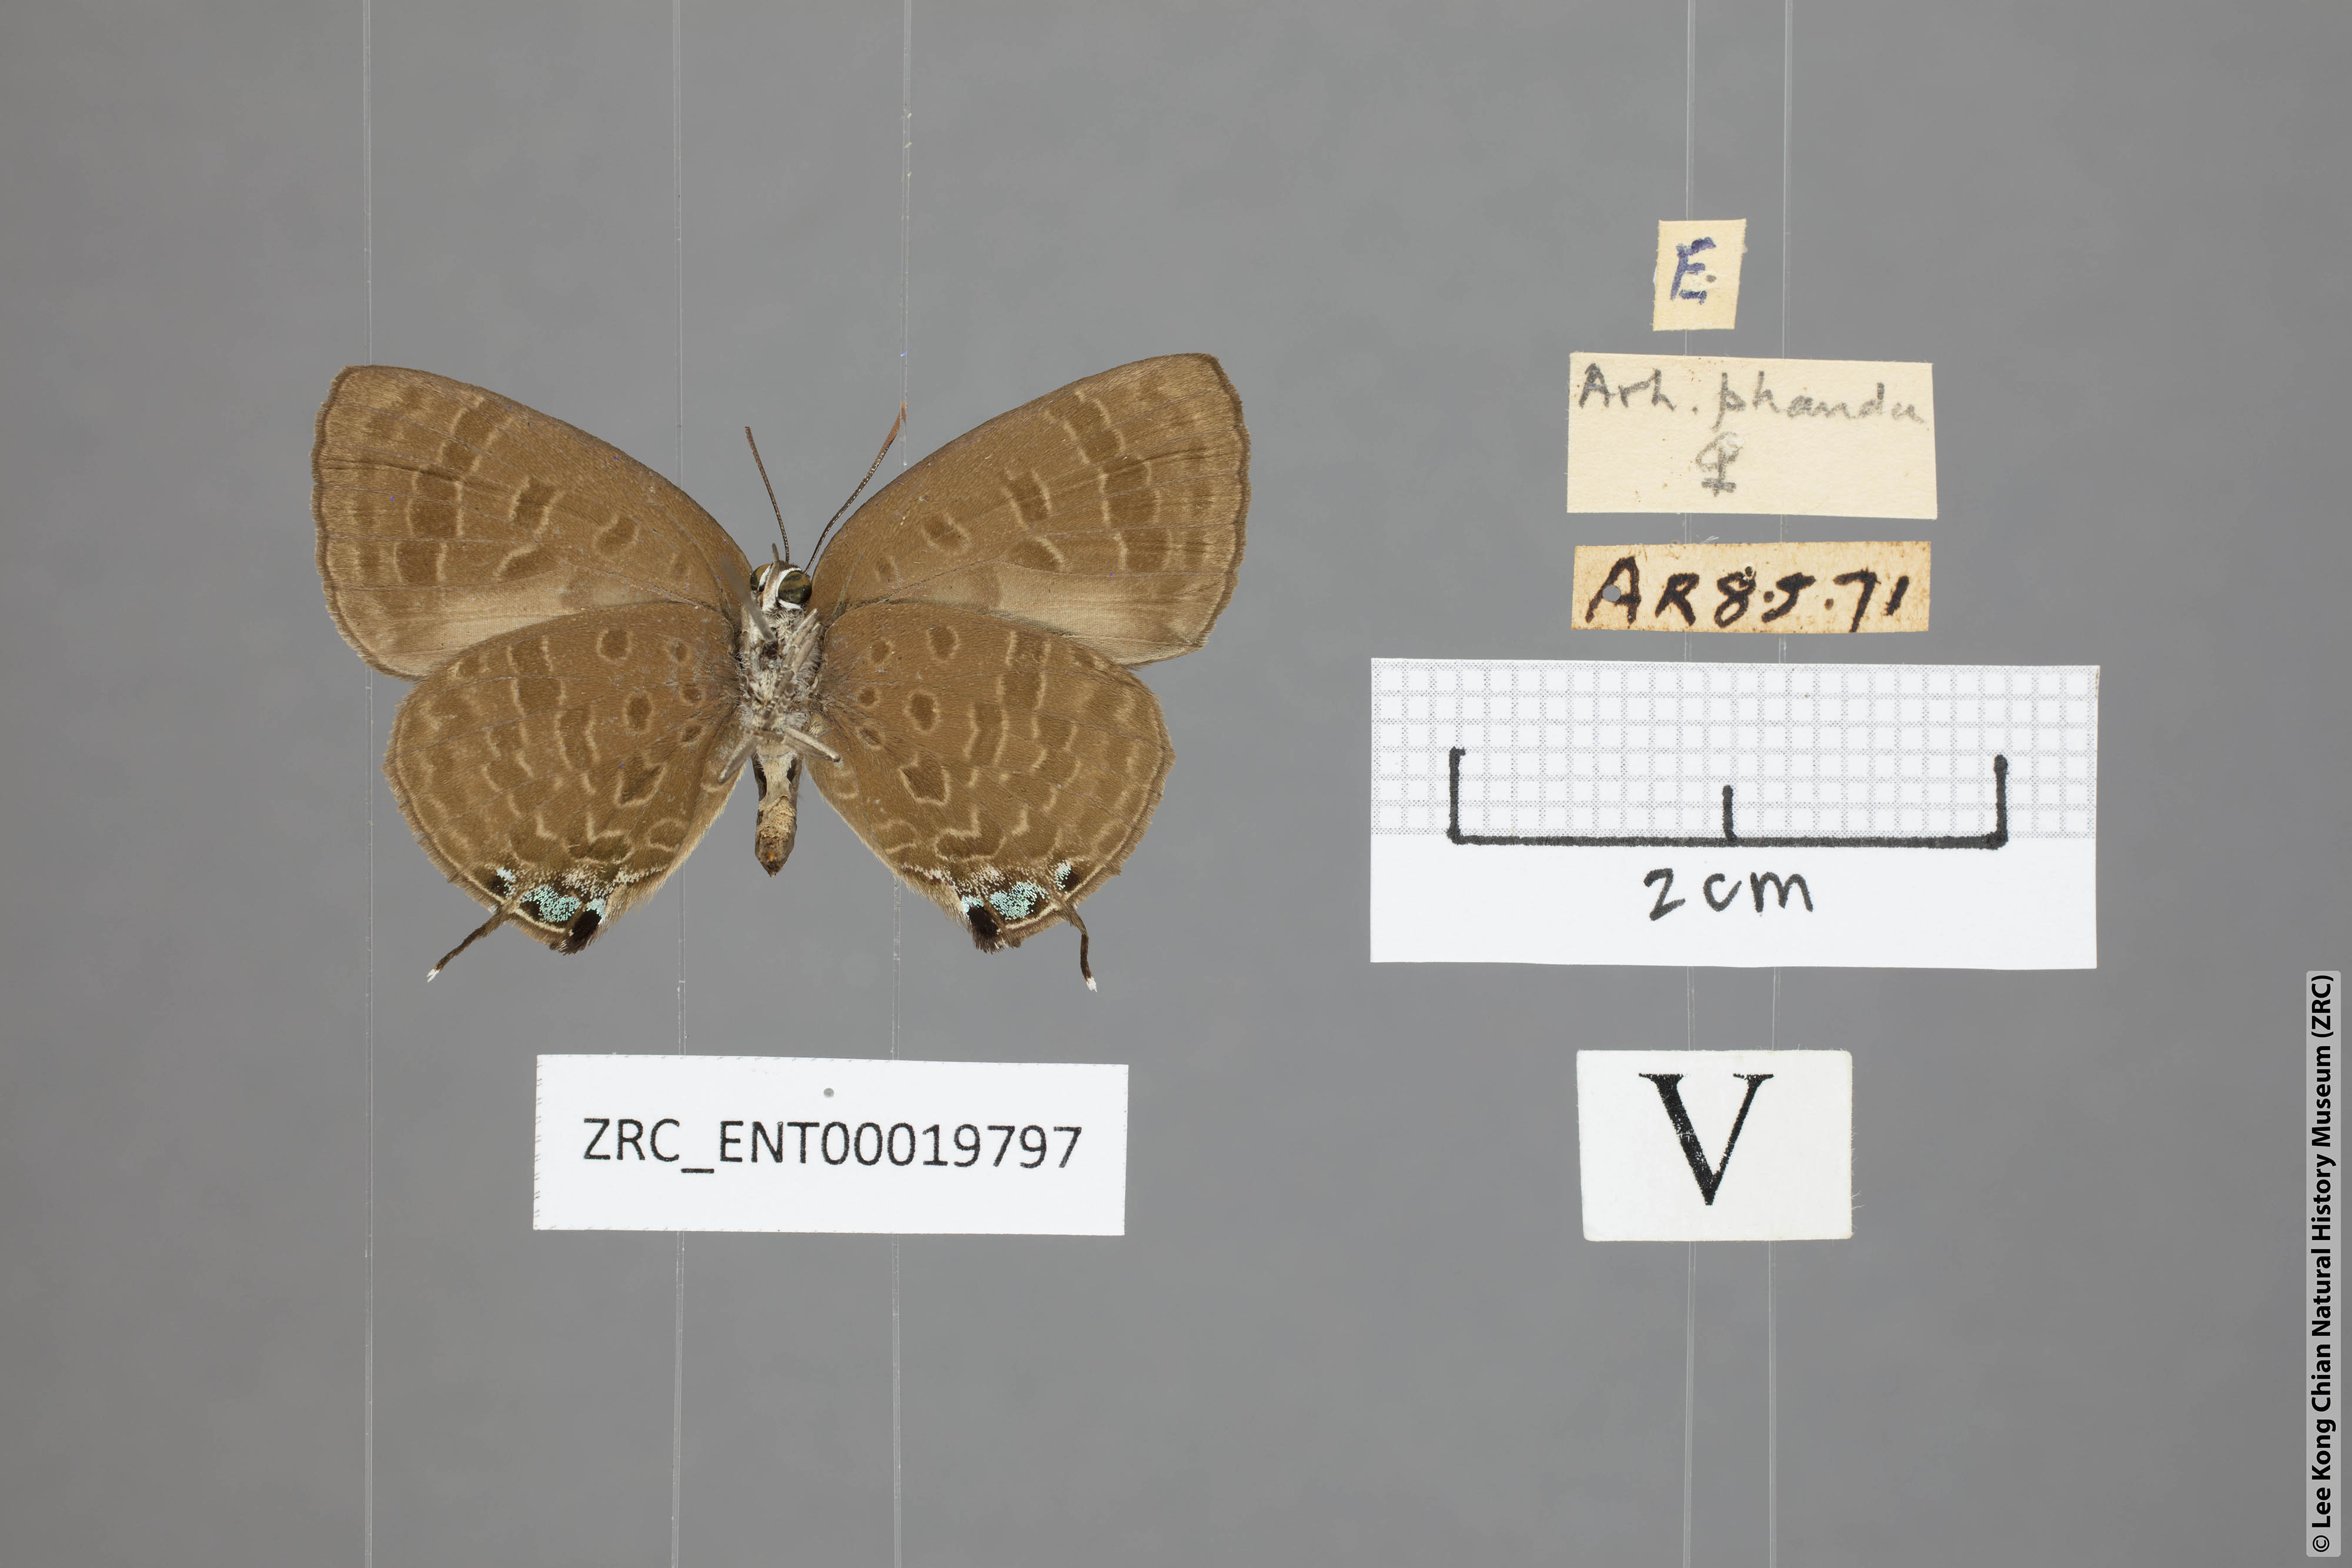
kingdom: Animalia
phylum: Arthropoda
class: Insecta
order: Lepidoptera
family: Lycaenidae
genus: Arhopala
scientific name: Arhopala phaenops
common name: Sumatran oakblue
